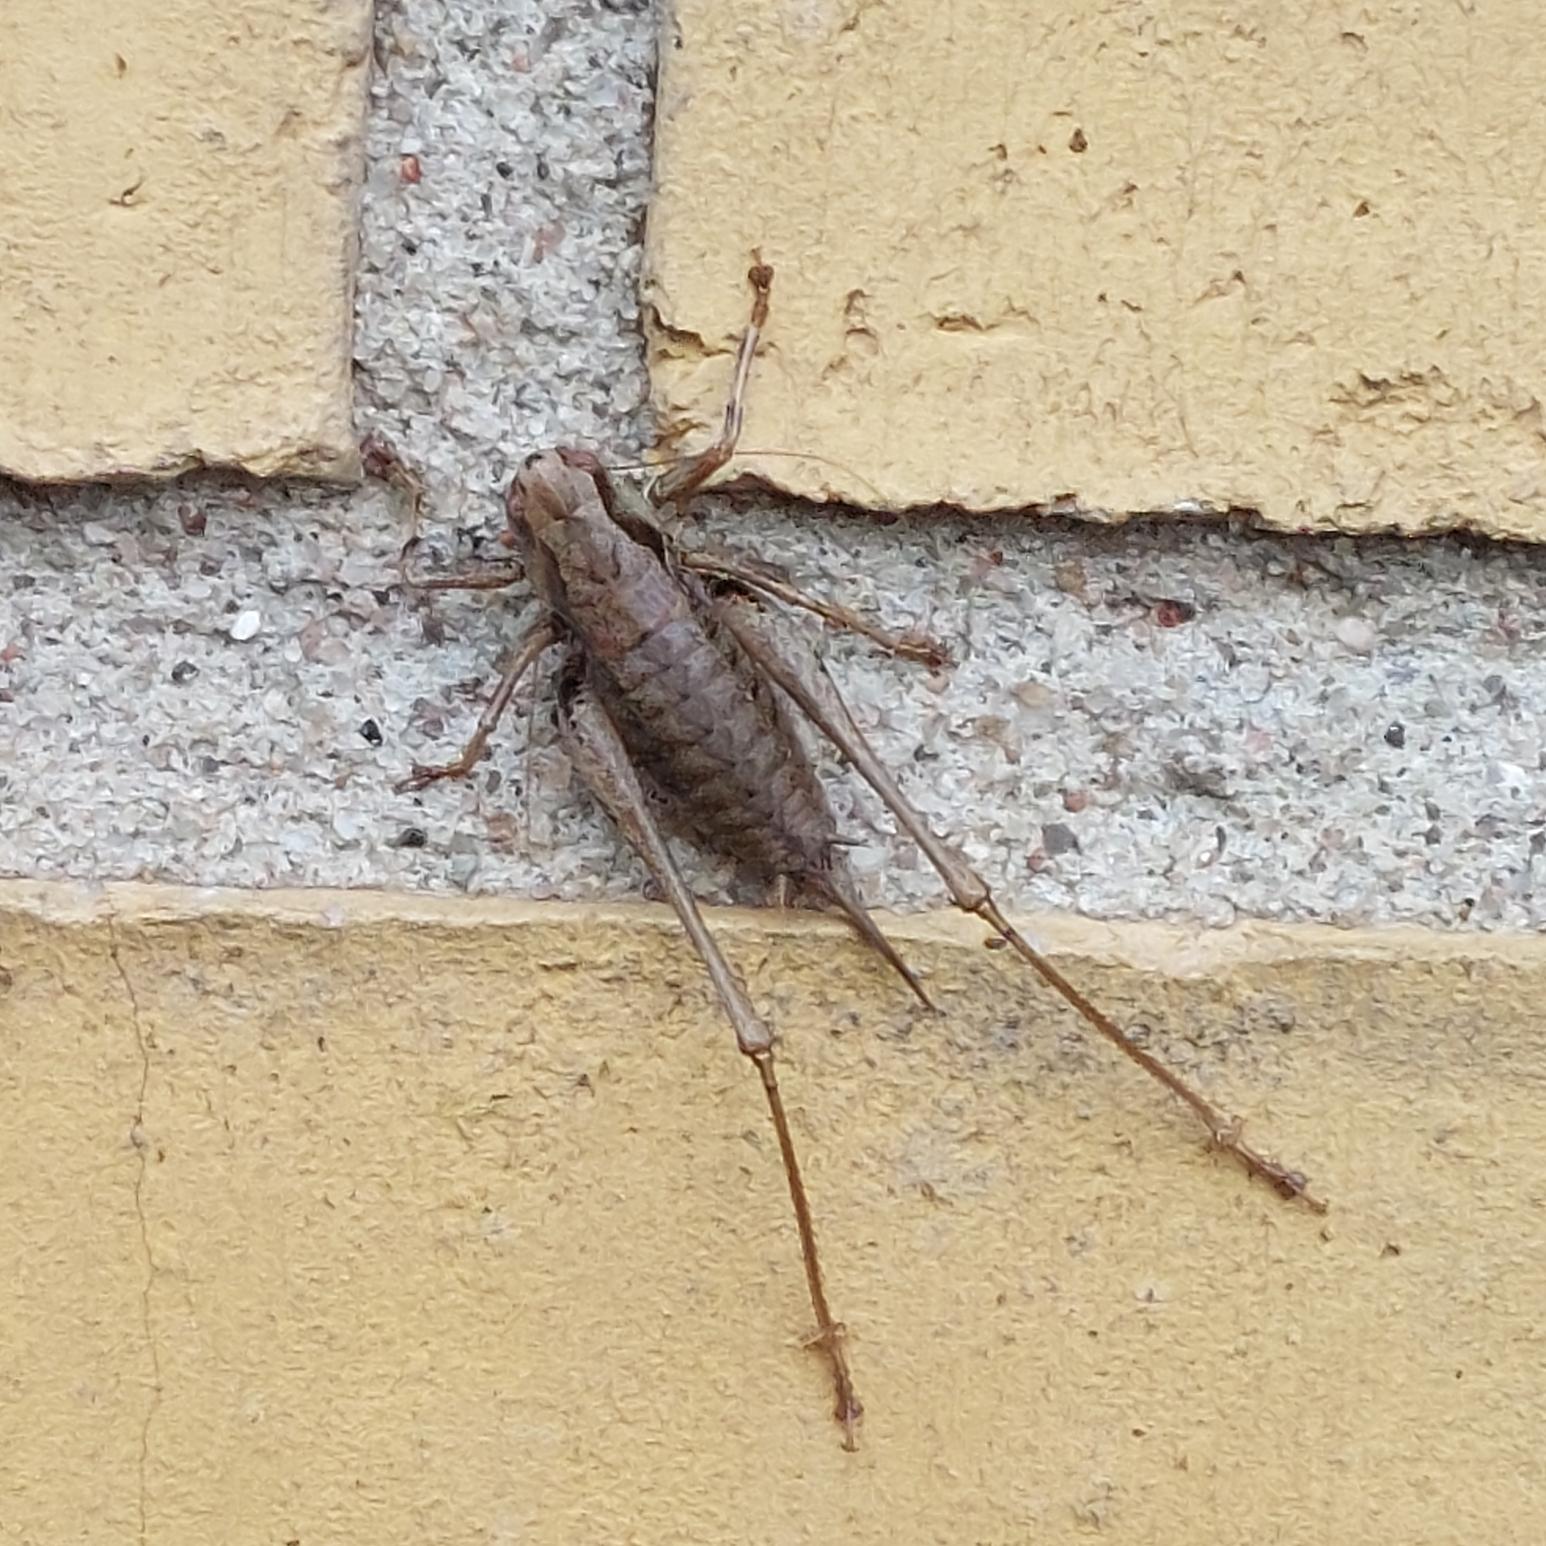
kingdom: Animalia
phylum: Arthropoda
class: Insecta
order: Orthoptera
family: Tettigoniidae
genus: Pholidoptera
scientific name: Pholidoptera griseoaptera
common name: Buskgræshoppe
